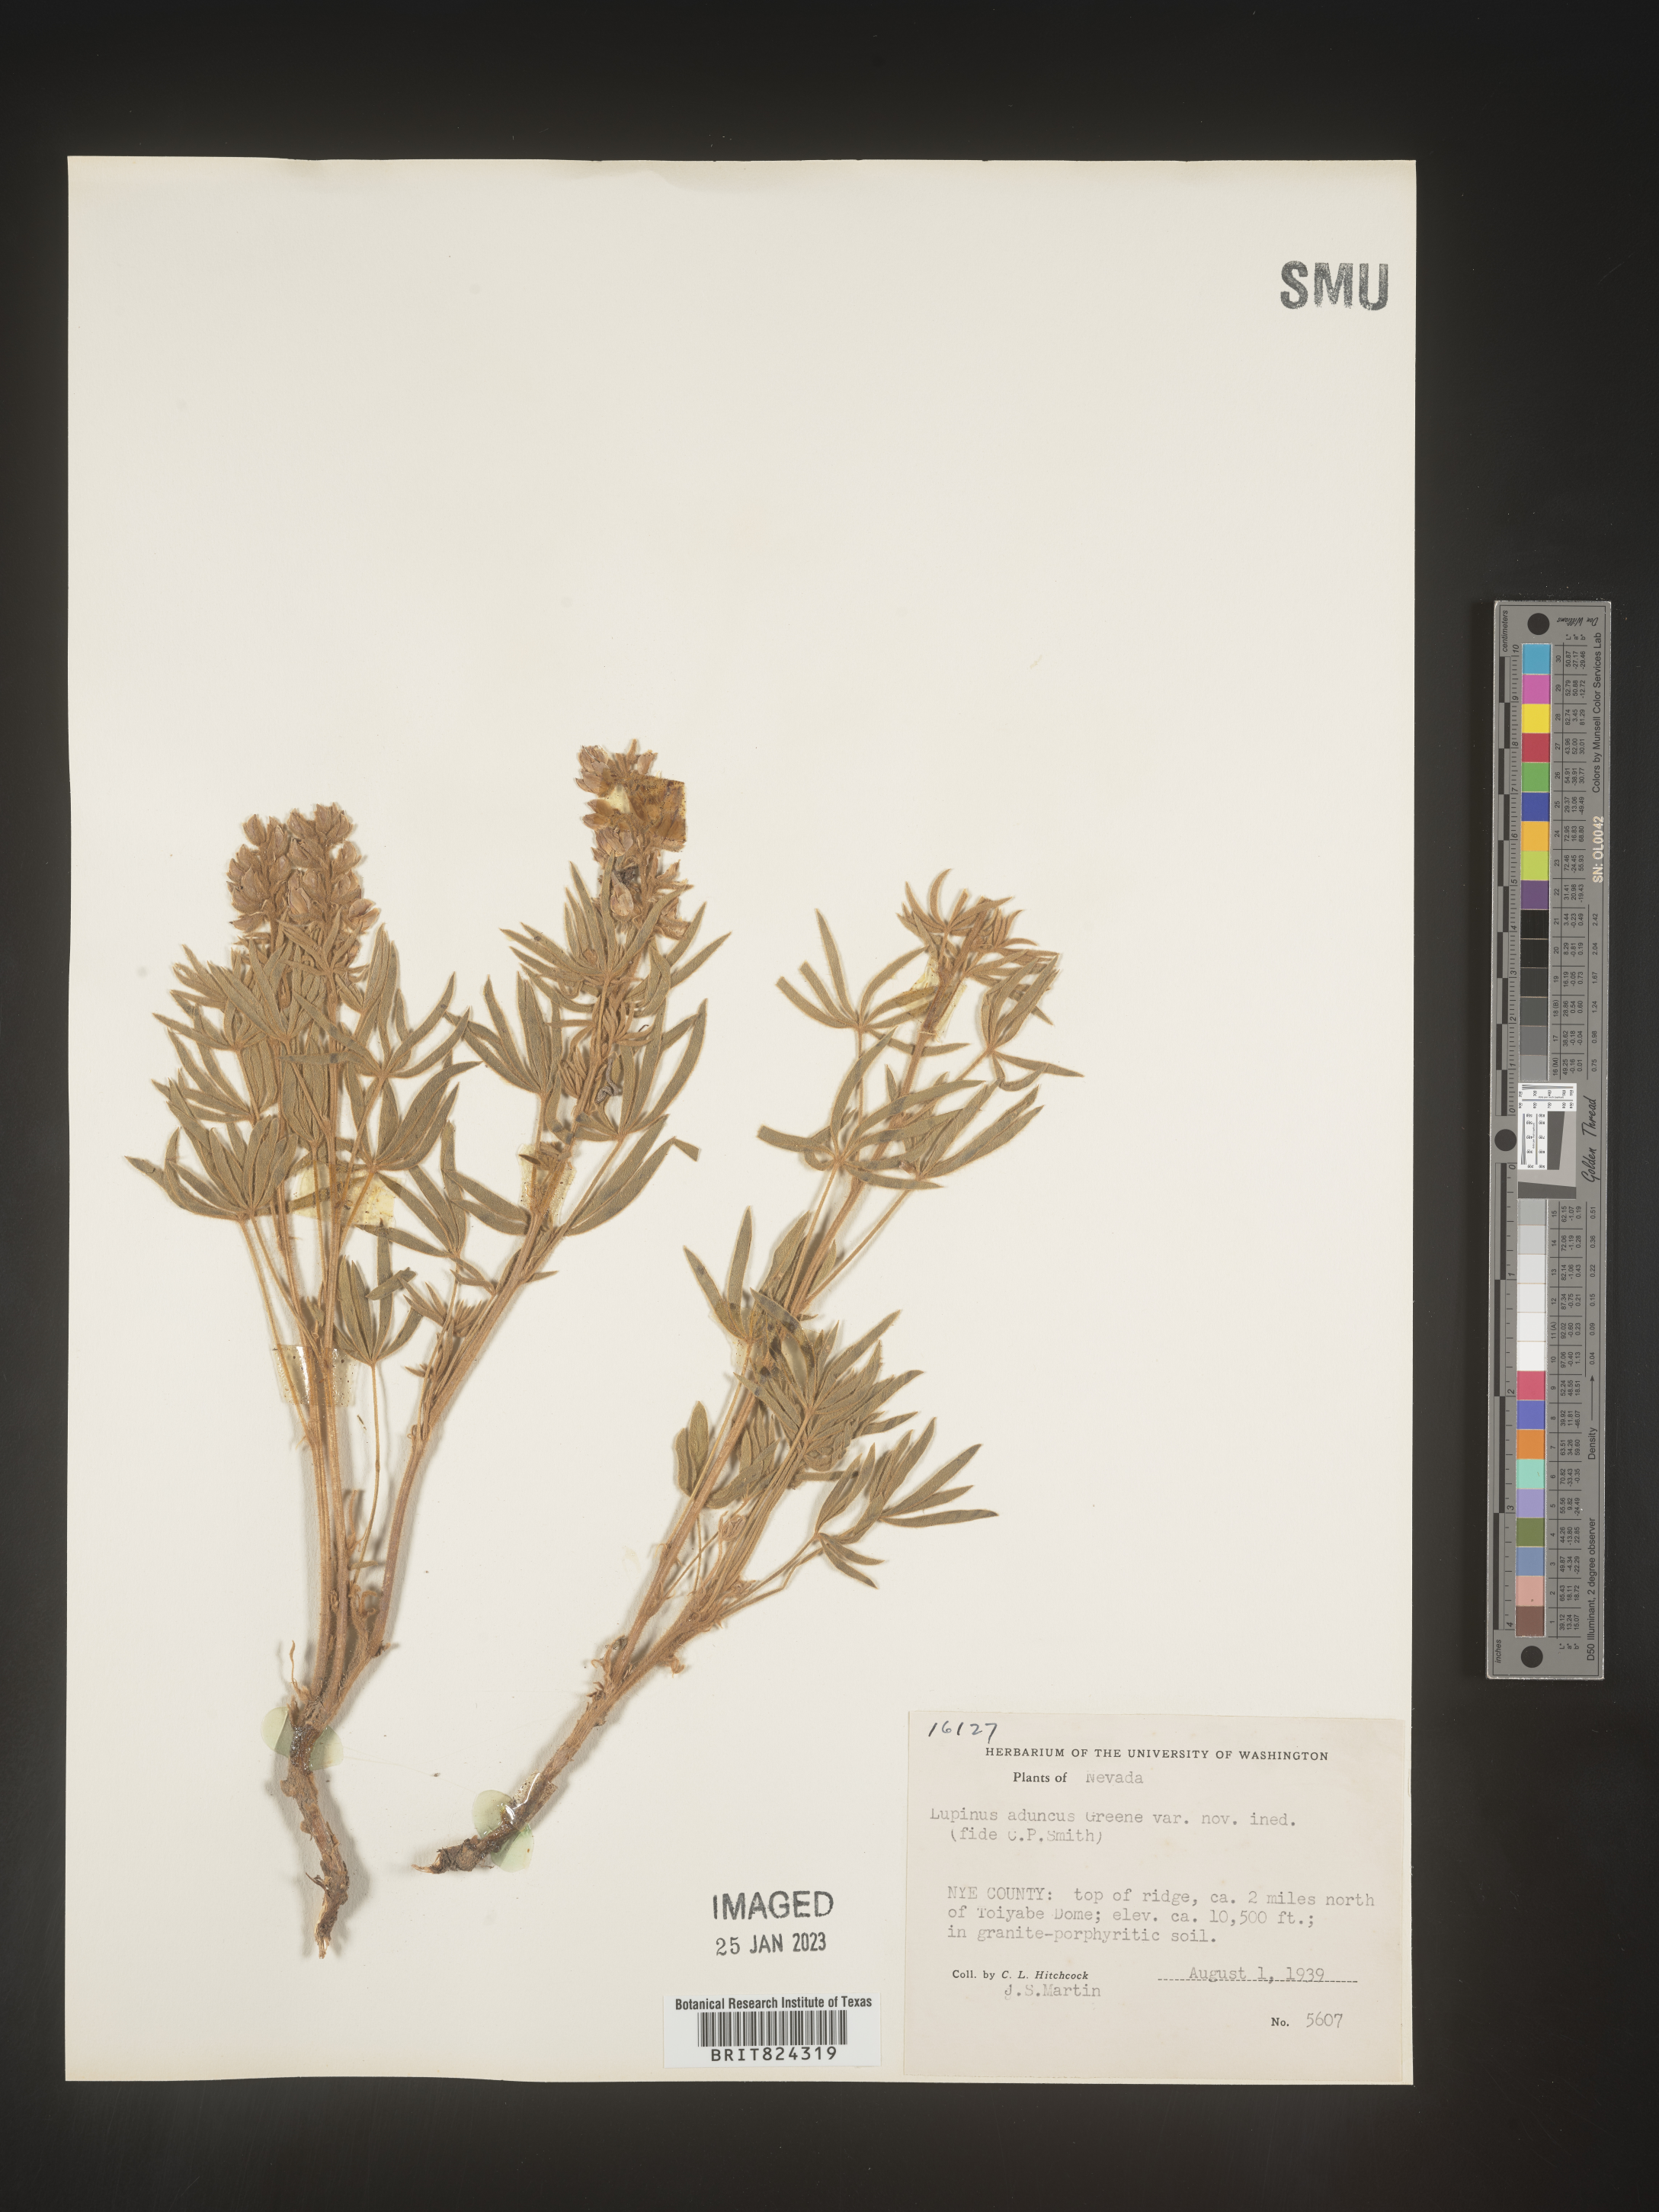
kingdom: Plantae
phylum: Tracheophyta
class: Magnoliopsida
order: Fabales
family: Fabaceae
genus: Lupinus
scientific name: Lupinus caudatus
